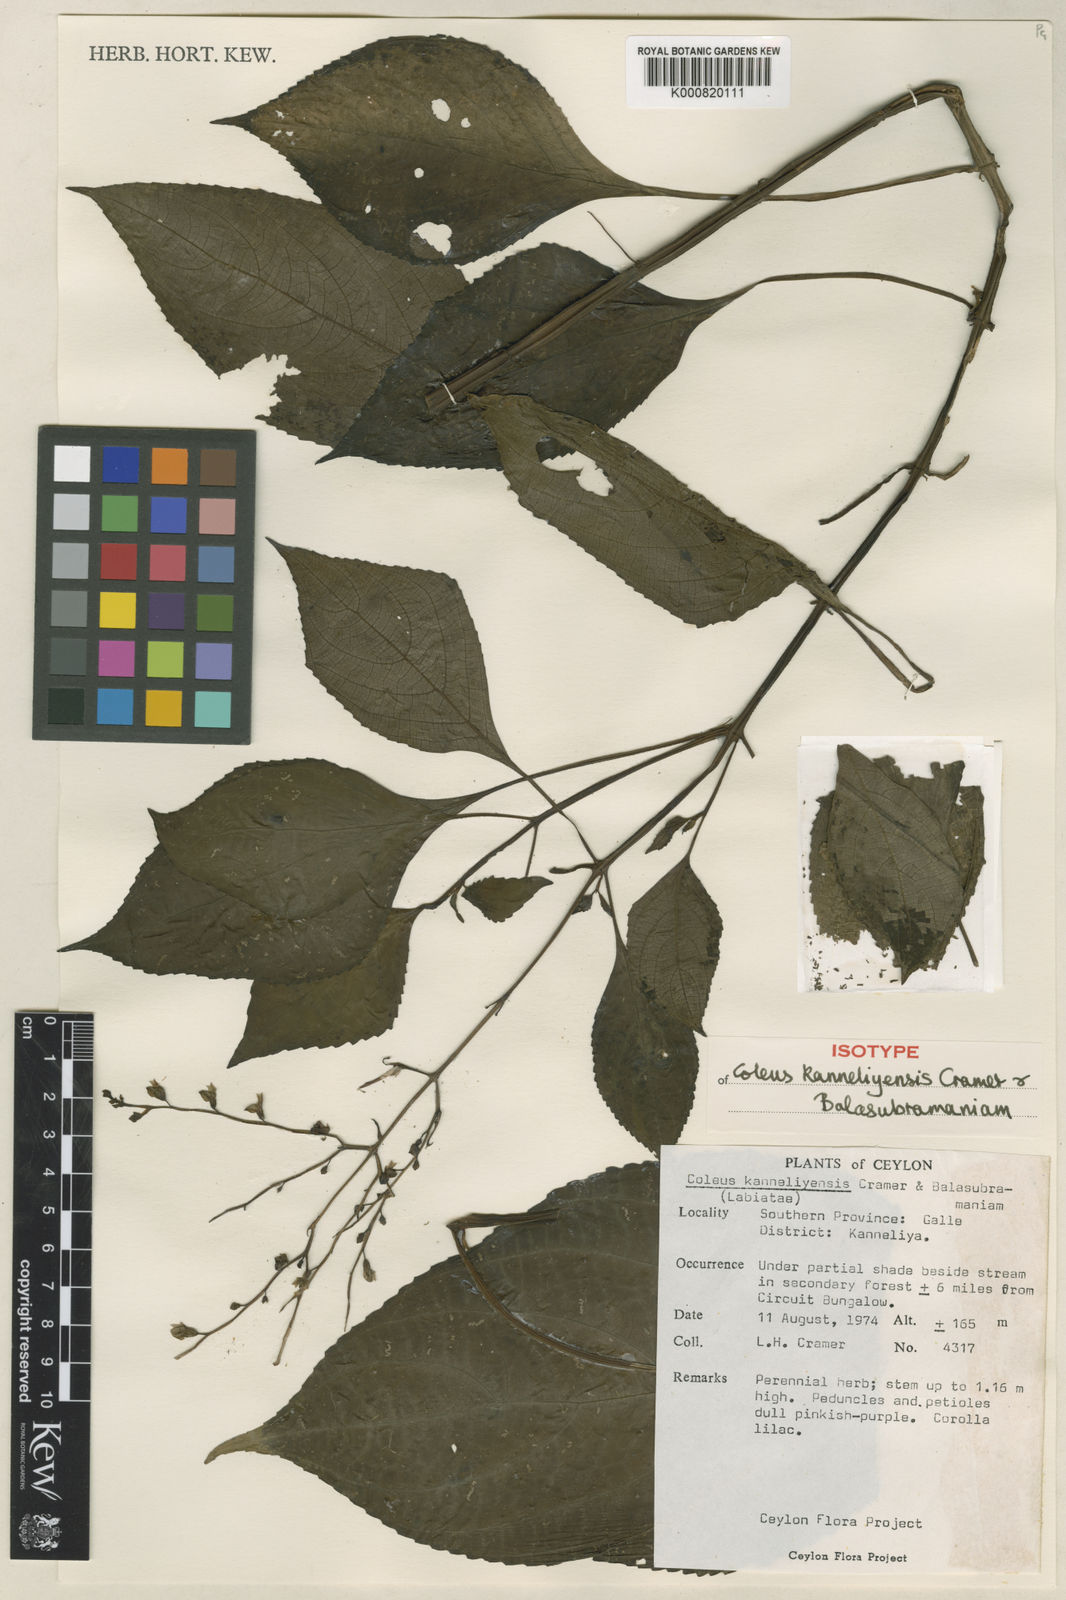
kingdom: Plantae
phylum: Tracheophyta
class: Magnoliopsida
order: Lamiales
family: Lamiaceae
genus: Coleus
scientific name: Coleus kanneliyensis
